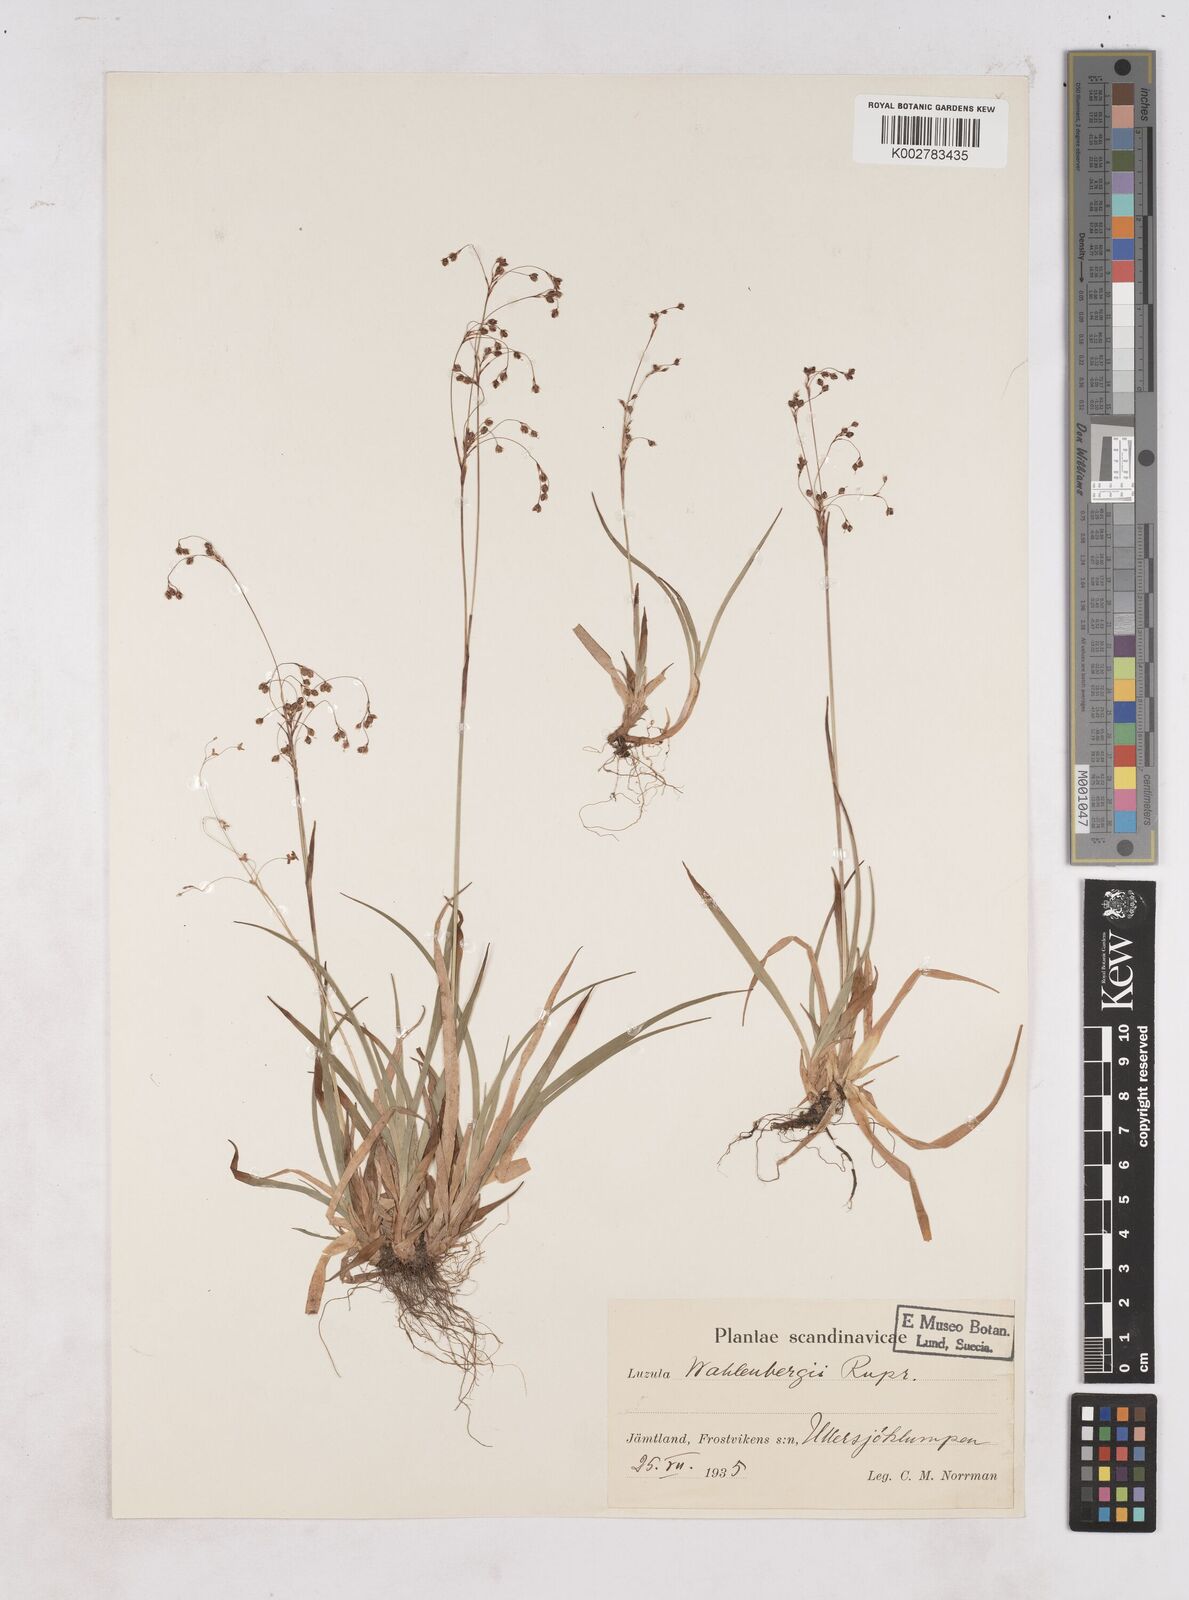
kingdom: Plantae
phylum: Tracheophyta
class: Liliopsida
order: Poales
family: Juncaceae
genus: Luzula
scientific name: Luzula wahlenbergii
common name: Wahlenberg's wood-rush
